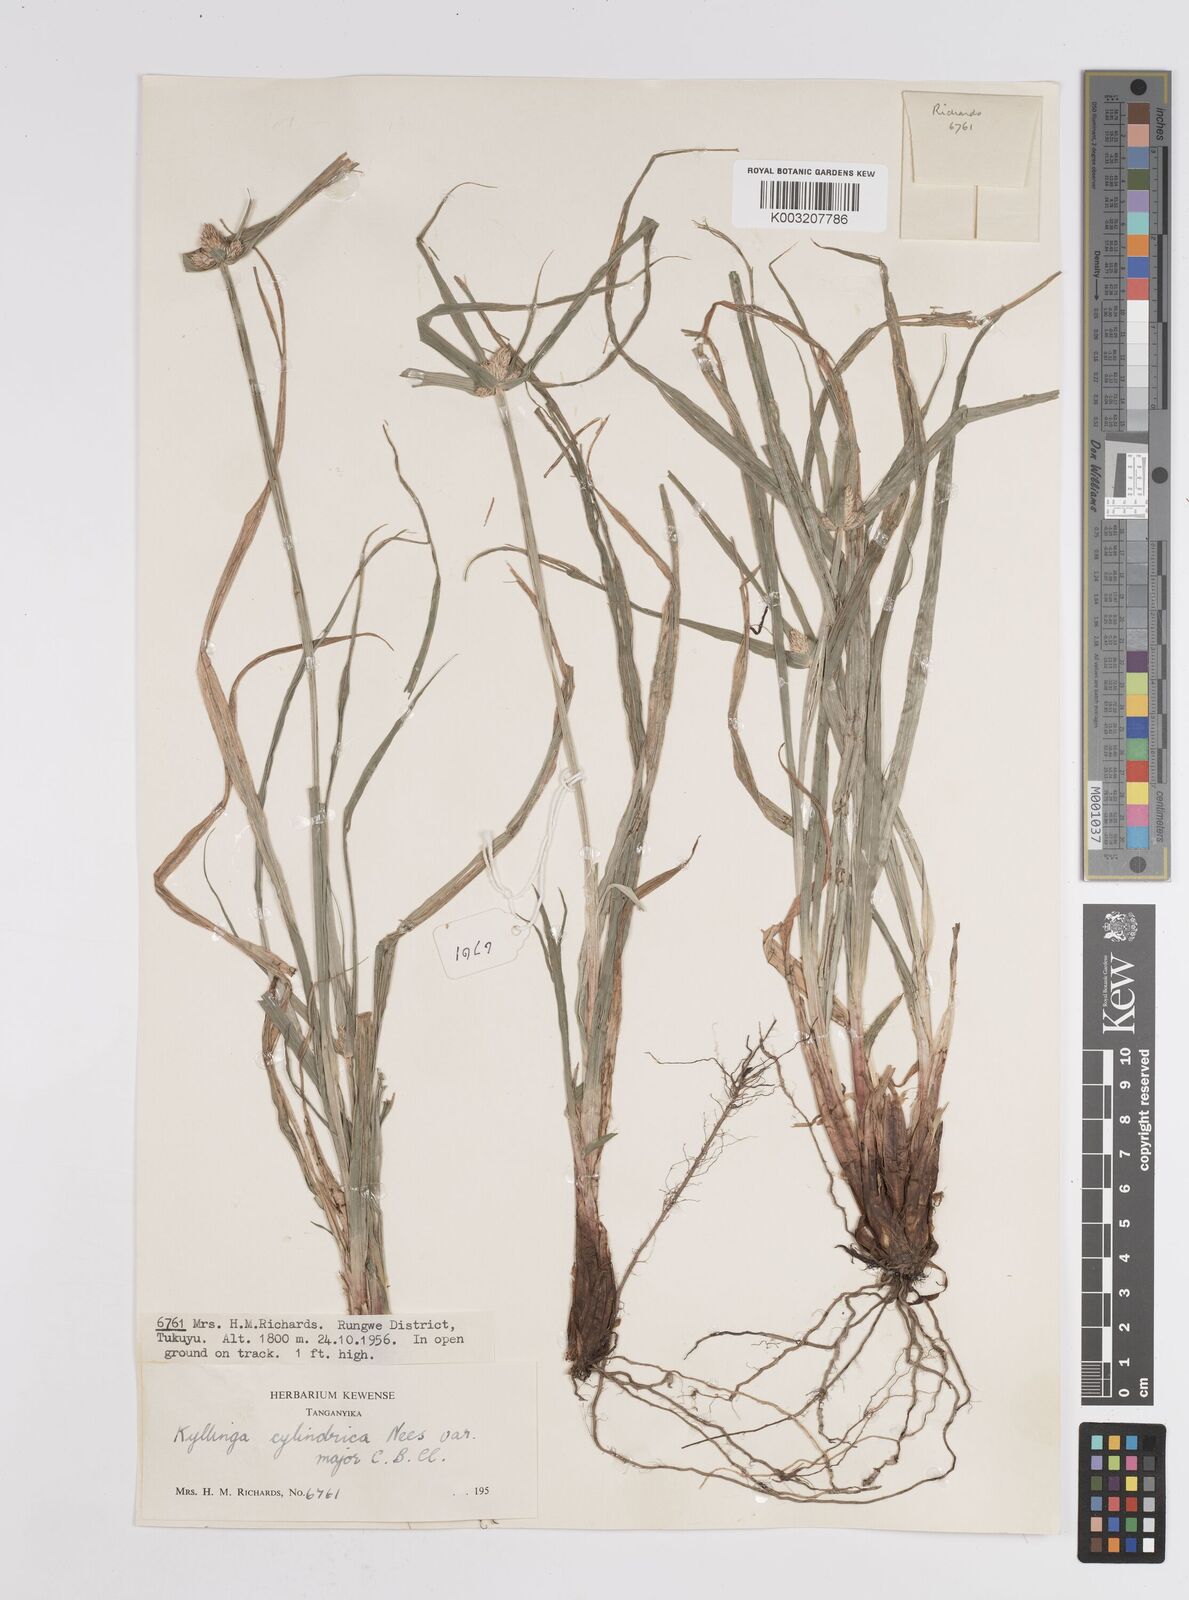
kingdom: Plantae
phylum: Tracheophyta
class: Liliopsida
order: Poales
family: Cyperaceae
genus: Cyperus
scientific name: Cyperus
